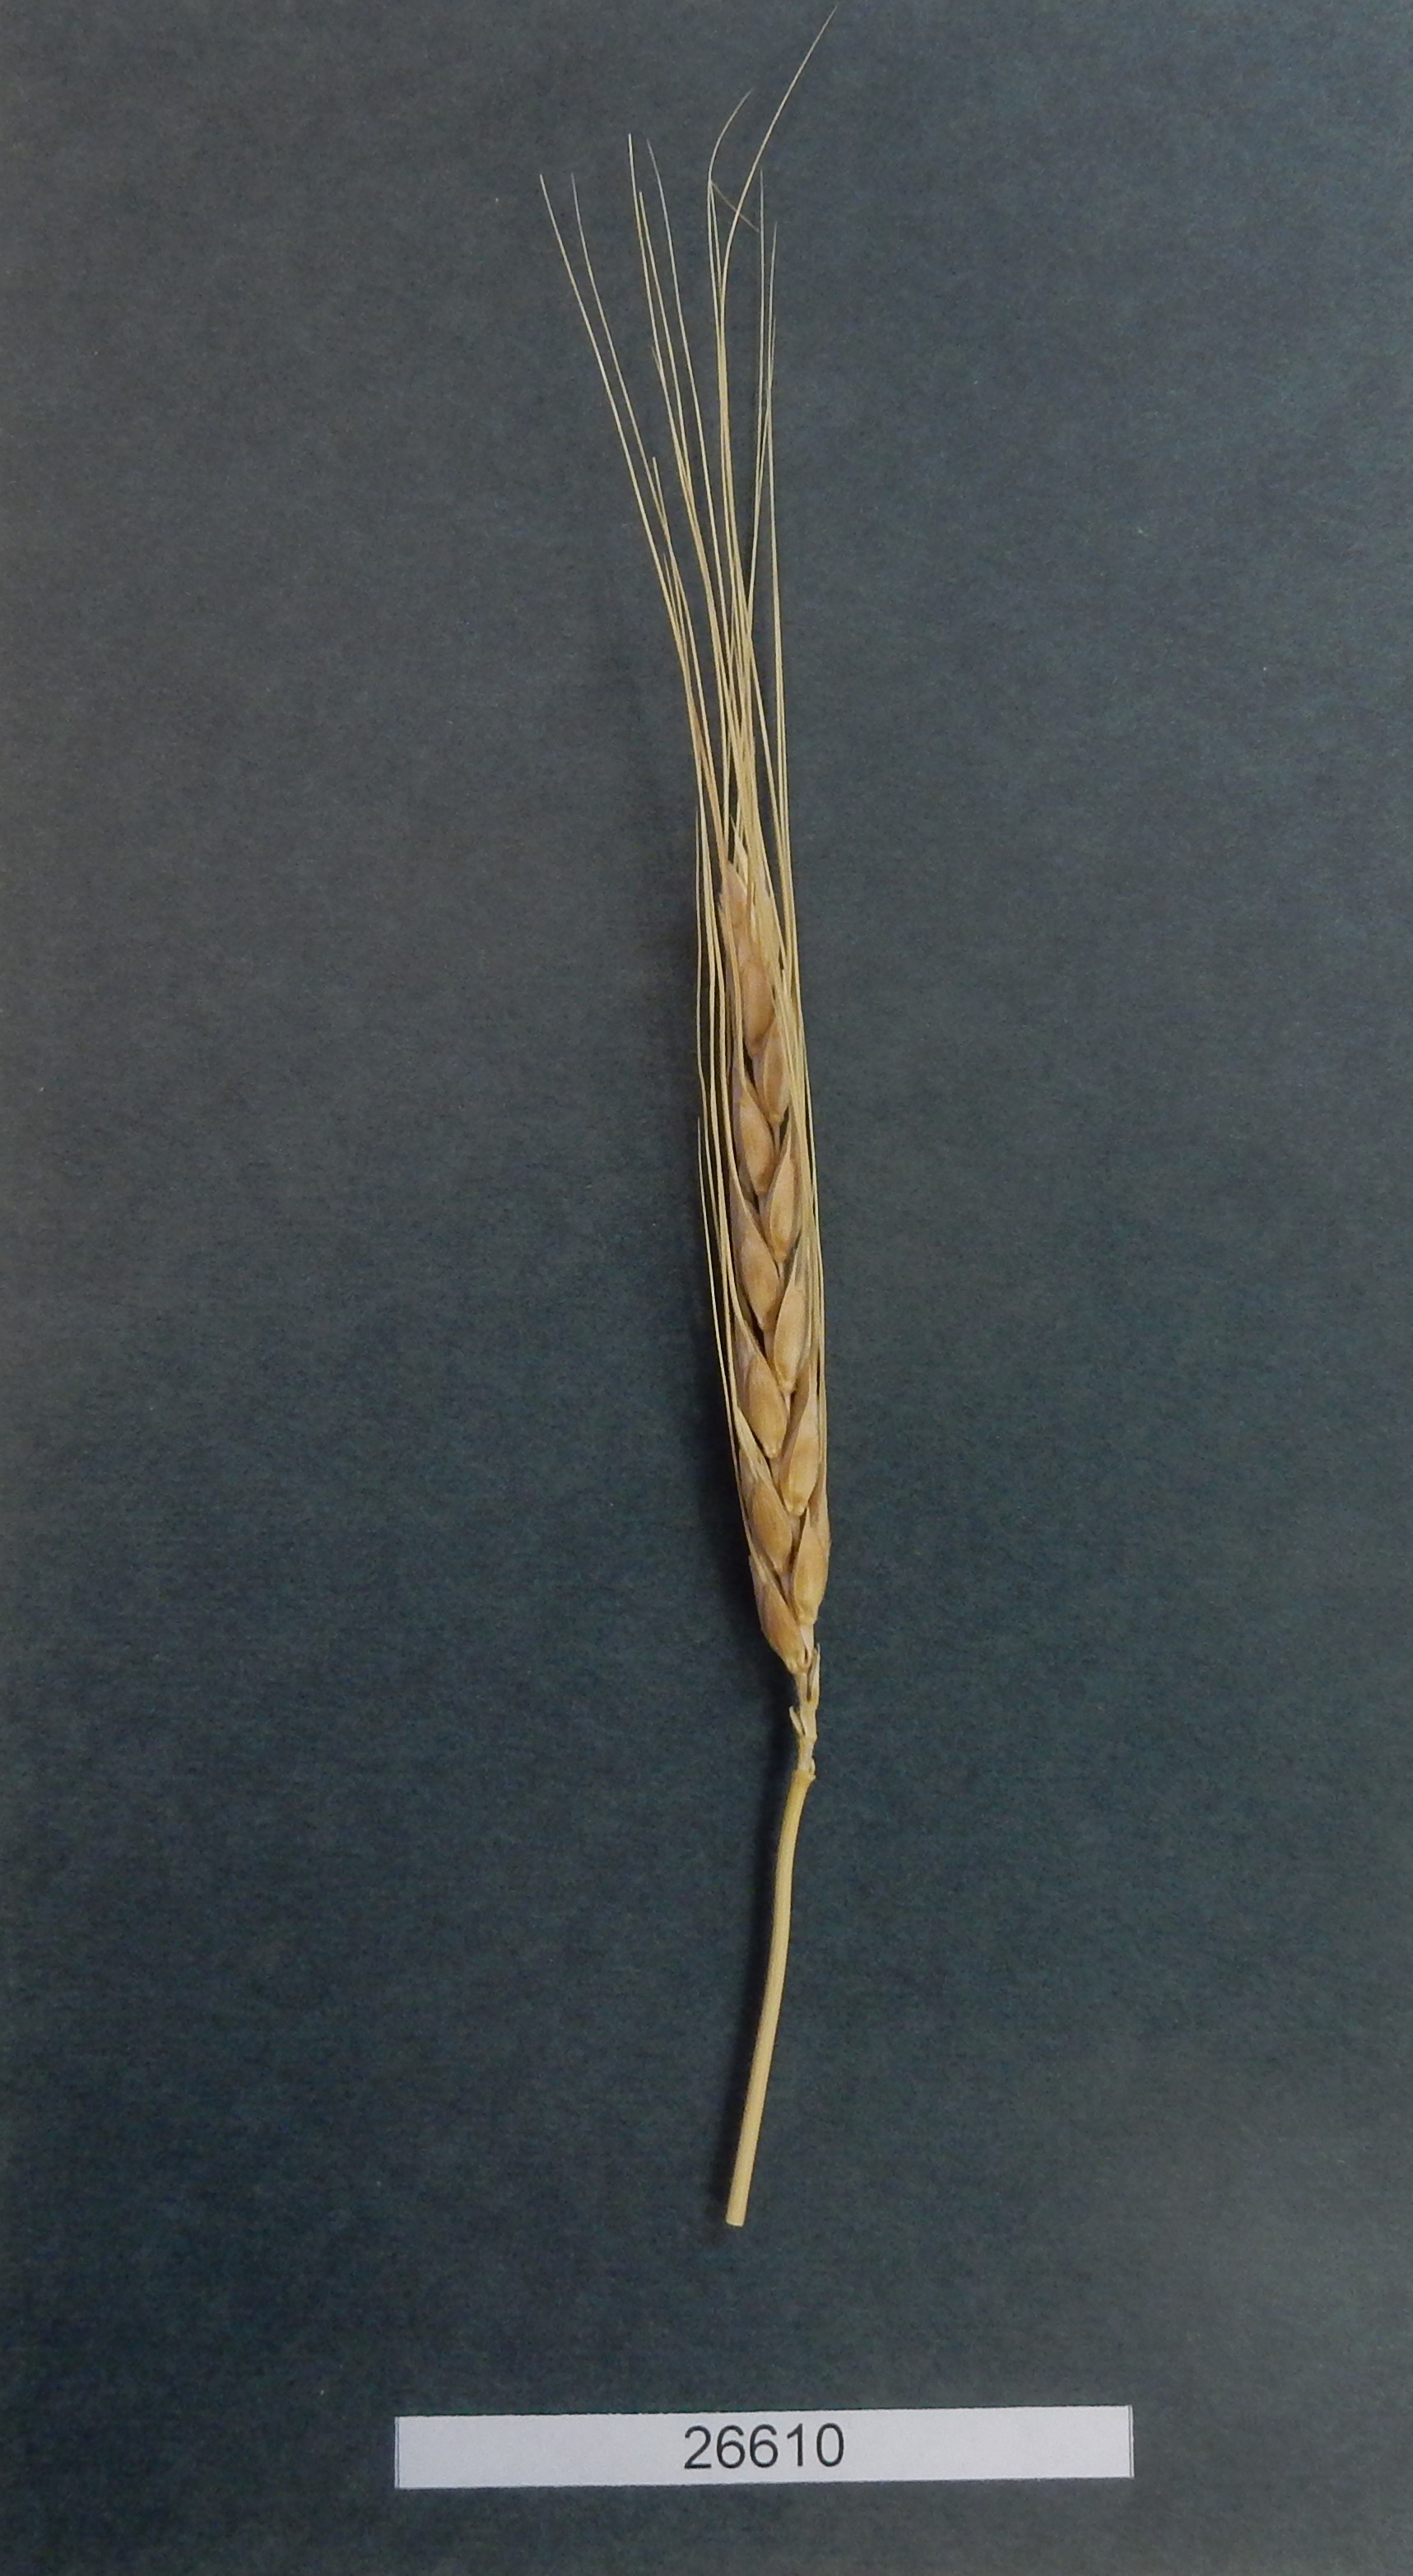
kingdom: Plantae
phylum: Tracheophyta
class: Liliopsida
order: Poales
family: Poaceae
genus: Triticum
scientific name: Triticum turgidum
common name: Wheat
